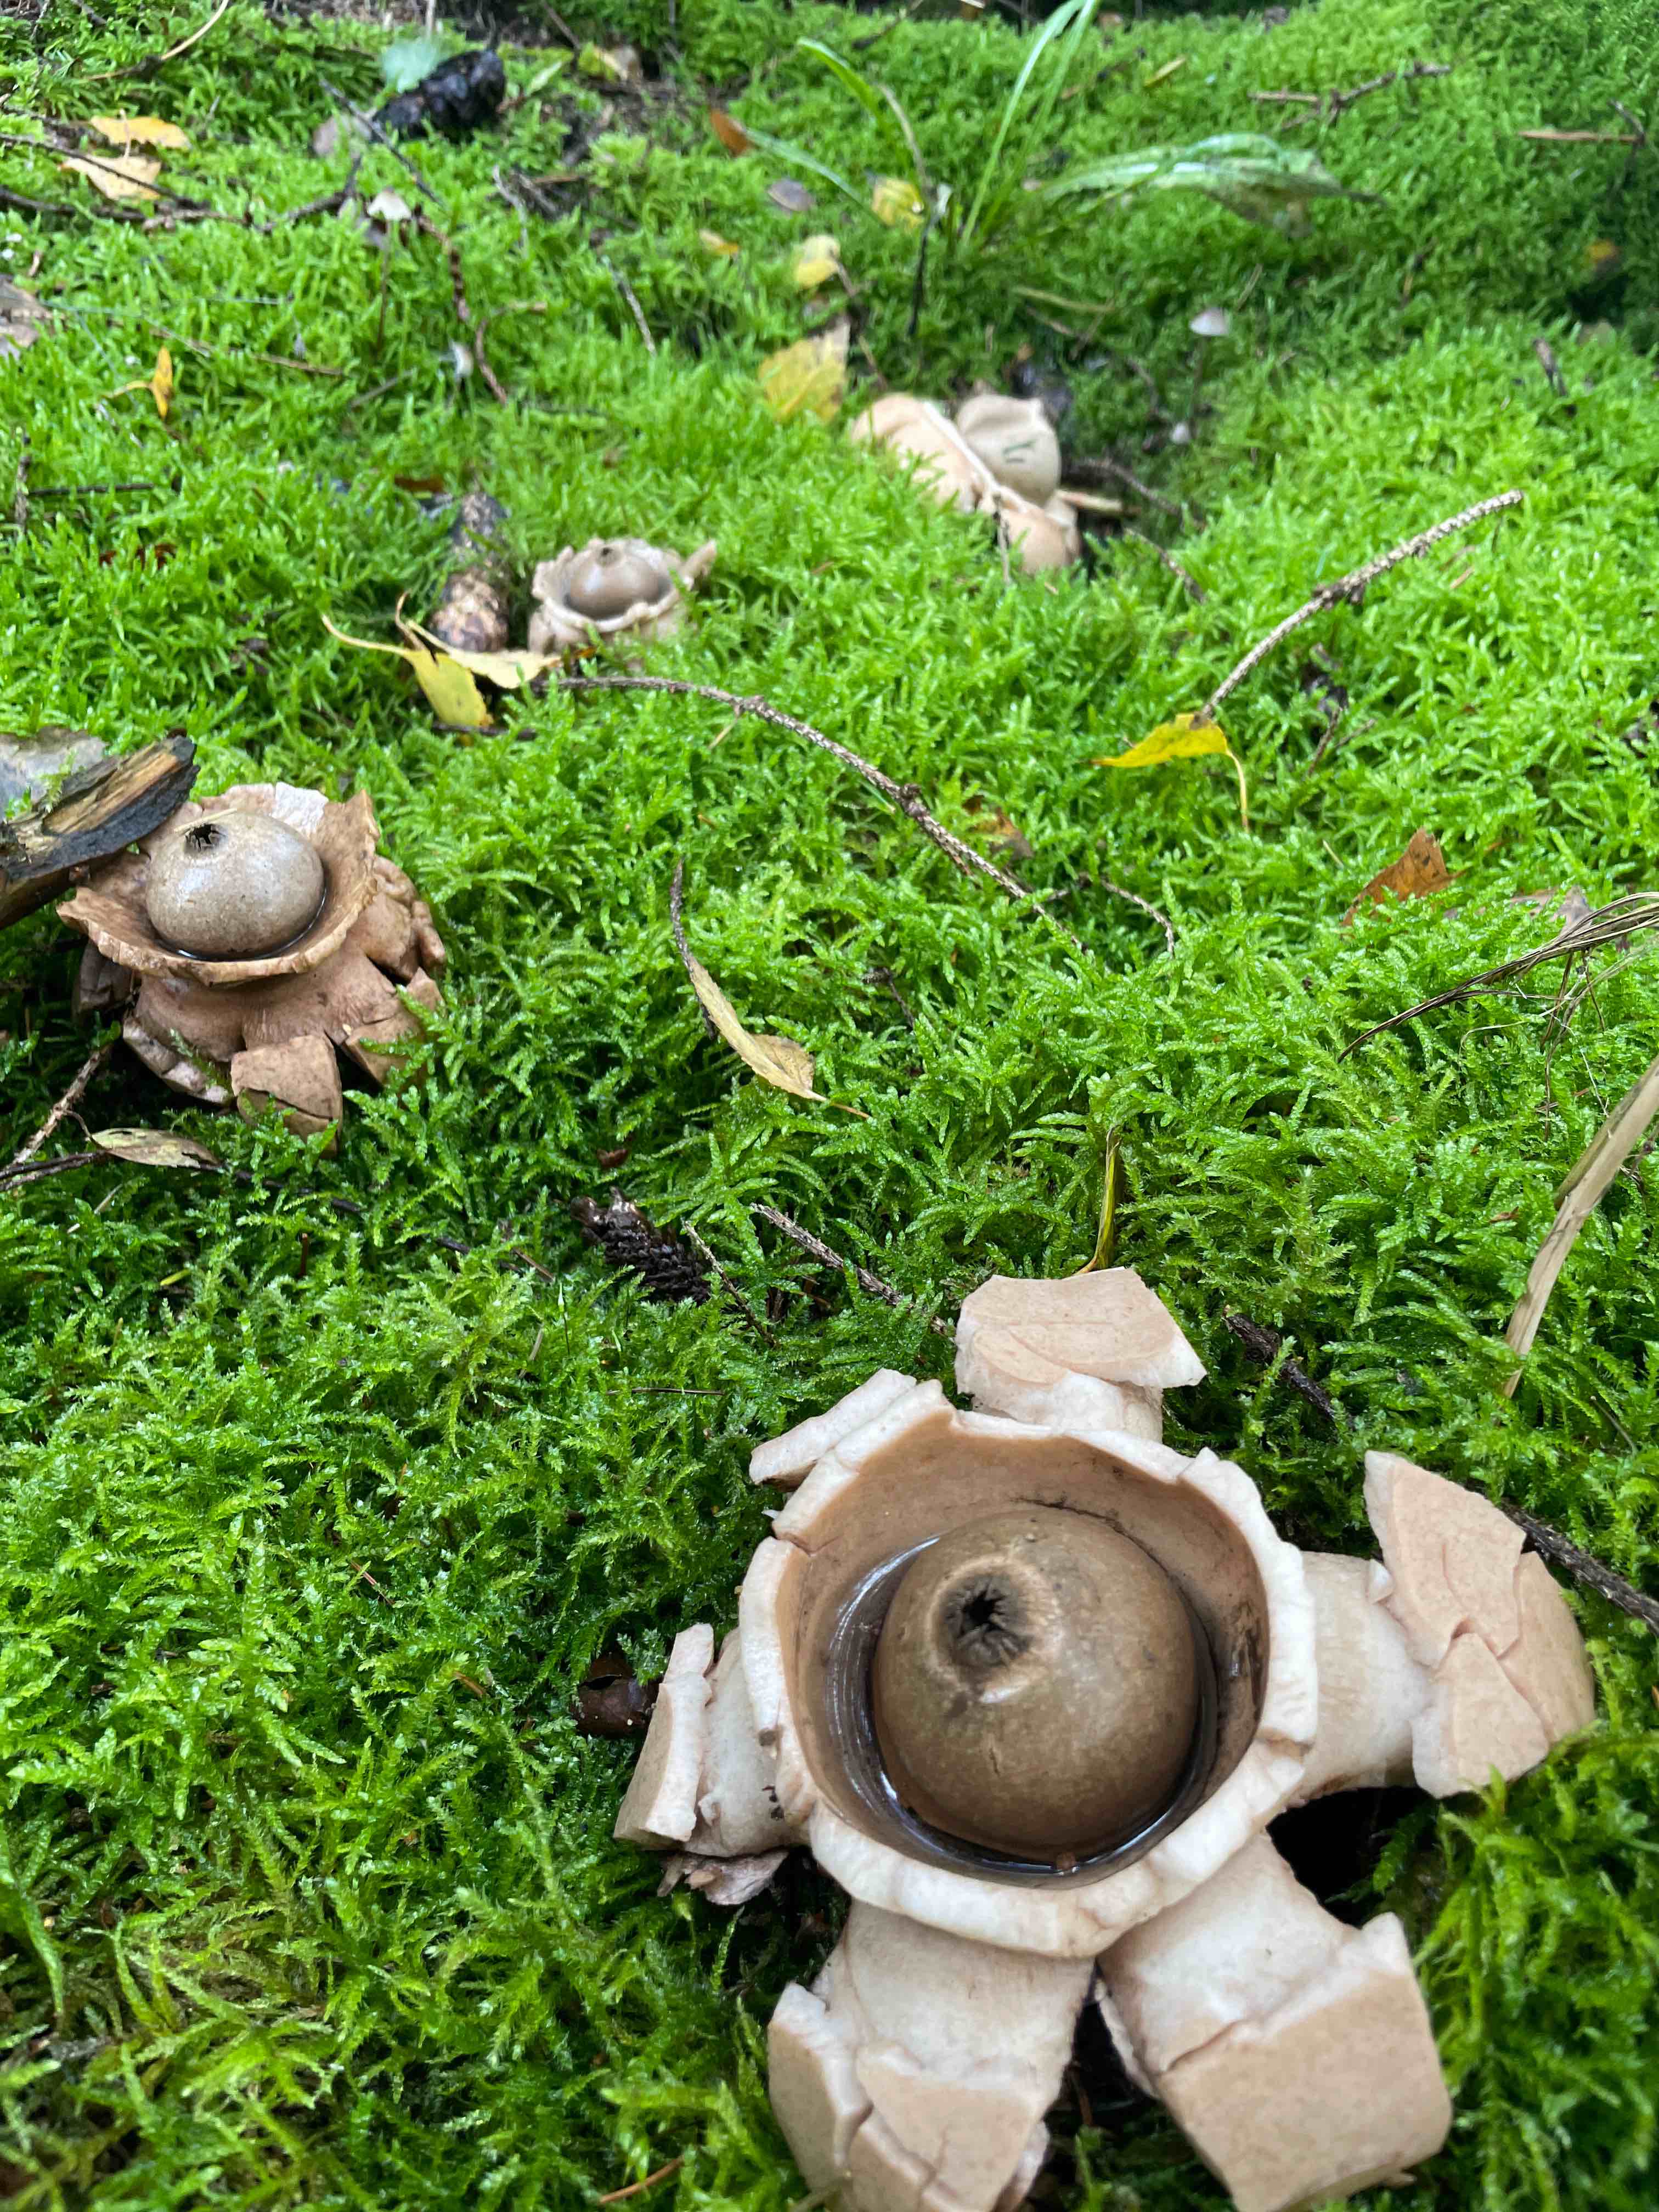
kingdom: Fungi
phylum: Basidiomycota
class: Agaricomycetes
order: Geastrales
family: Geastraceae
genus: Geastrum
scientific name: Geastrum michelianum
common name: kødet stjernebold
